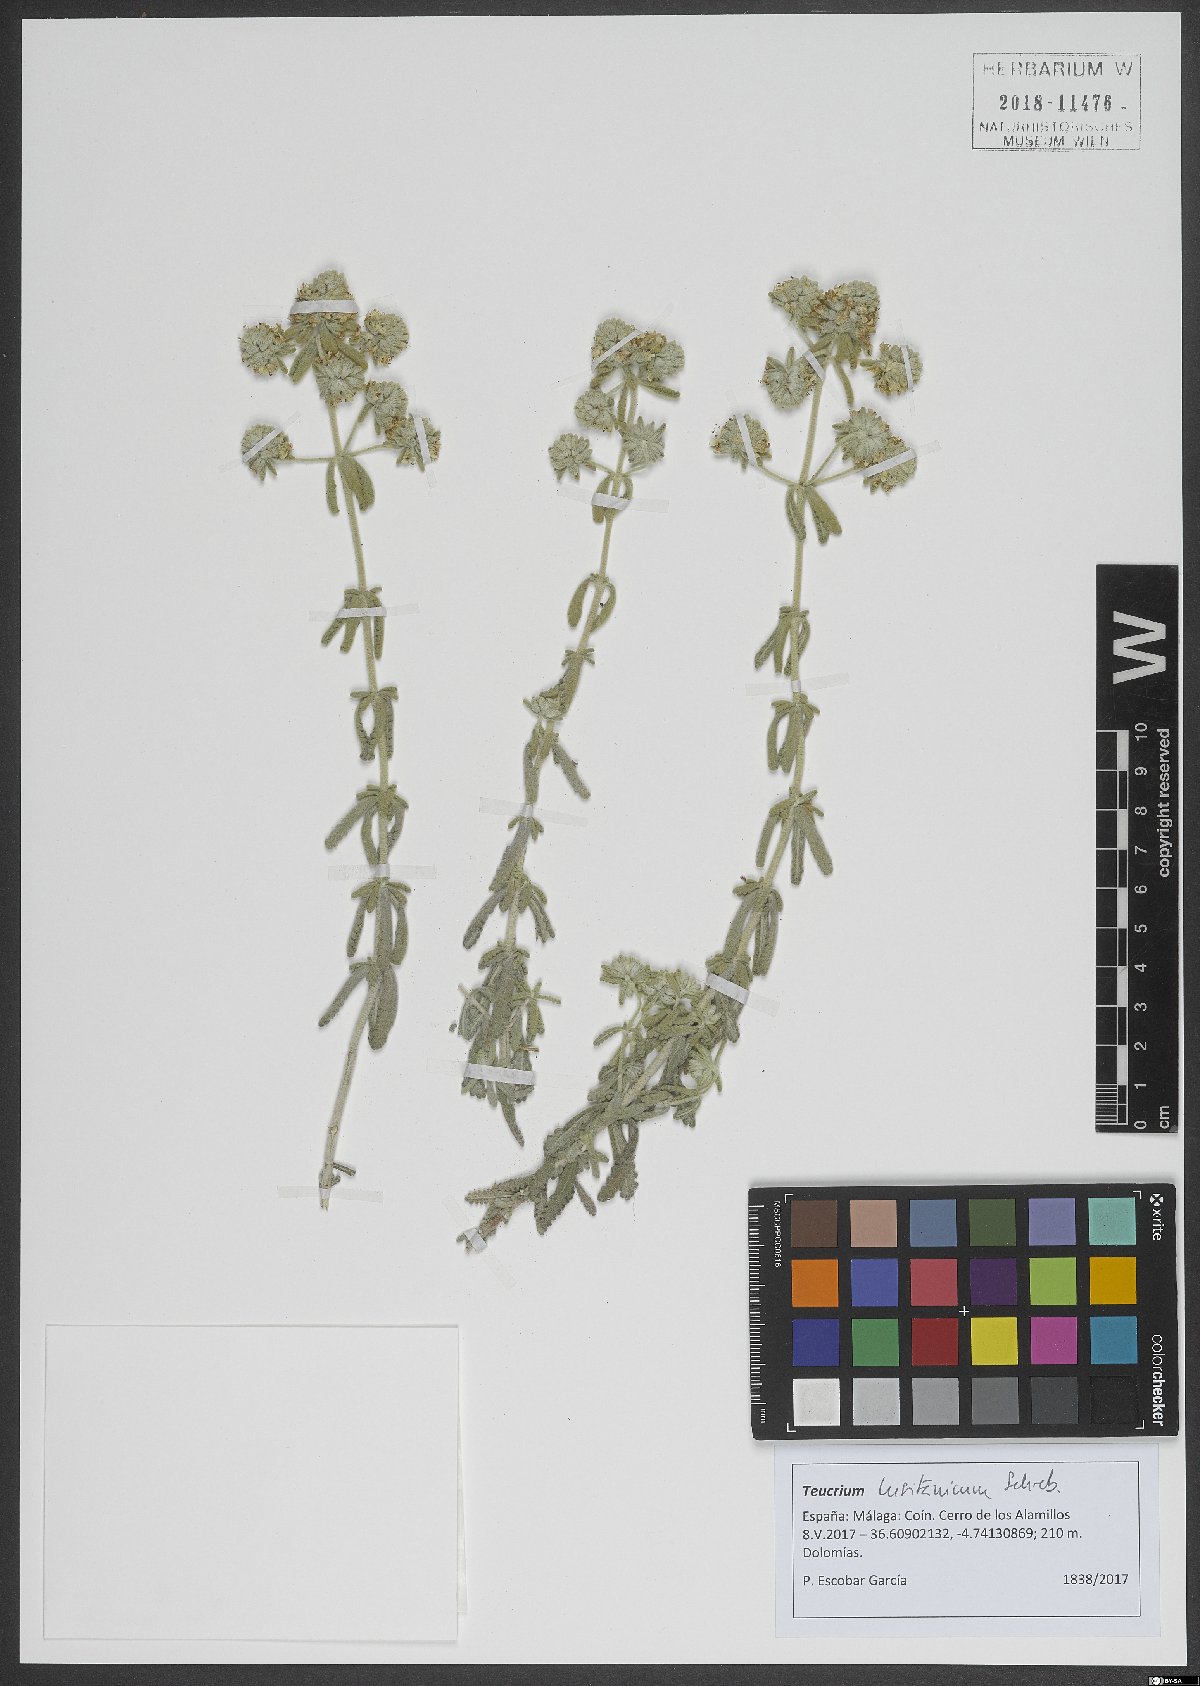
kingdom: Plantae
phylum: Tracheophyta
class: Magnoliopsida
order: Lamiales
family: Lamiaceae
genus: Teucrium
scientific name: Teucrium lusitanicum
